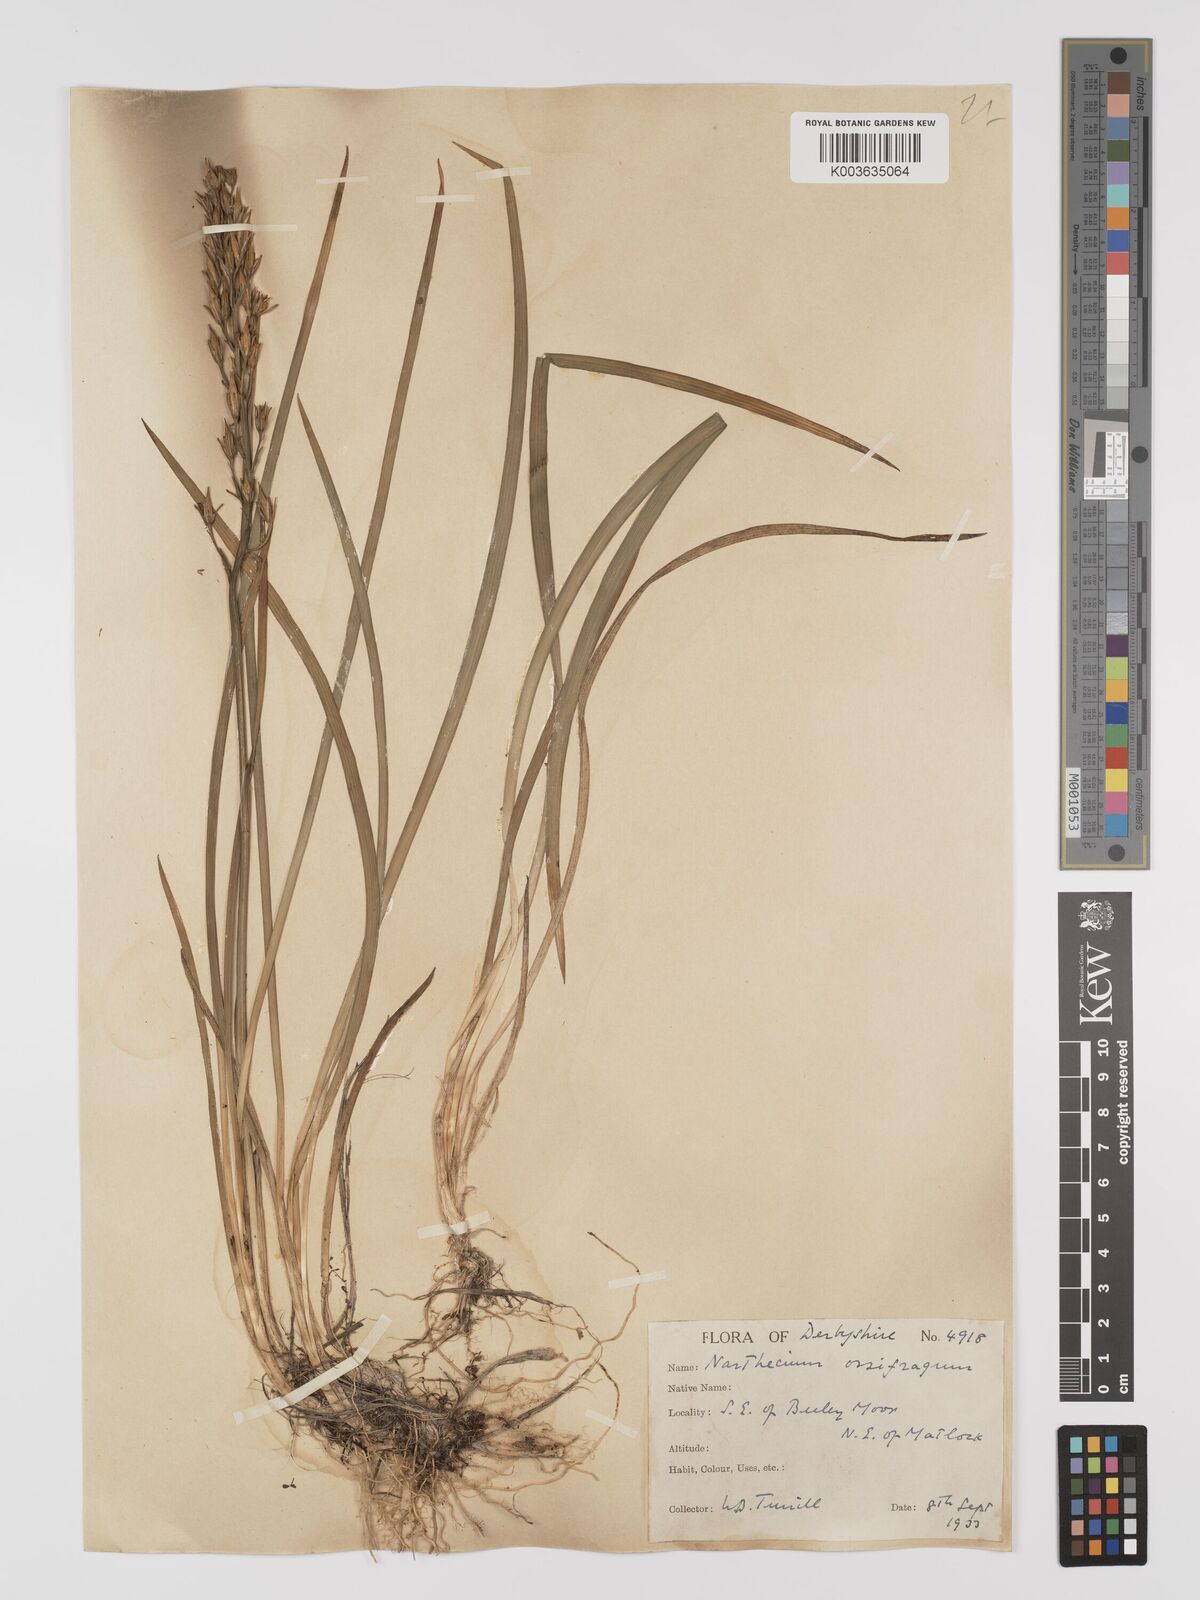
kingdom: Plantae
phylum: Tracheophyta
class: Liliopsida
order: Dioscoreales
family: Nartheciaceae
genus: Narthecium
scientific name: Narthecium
